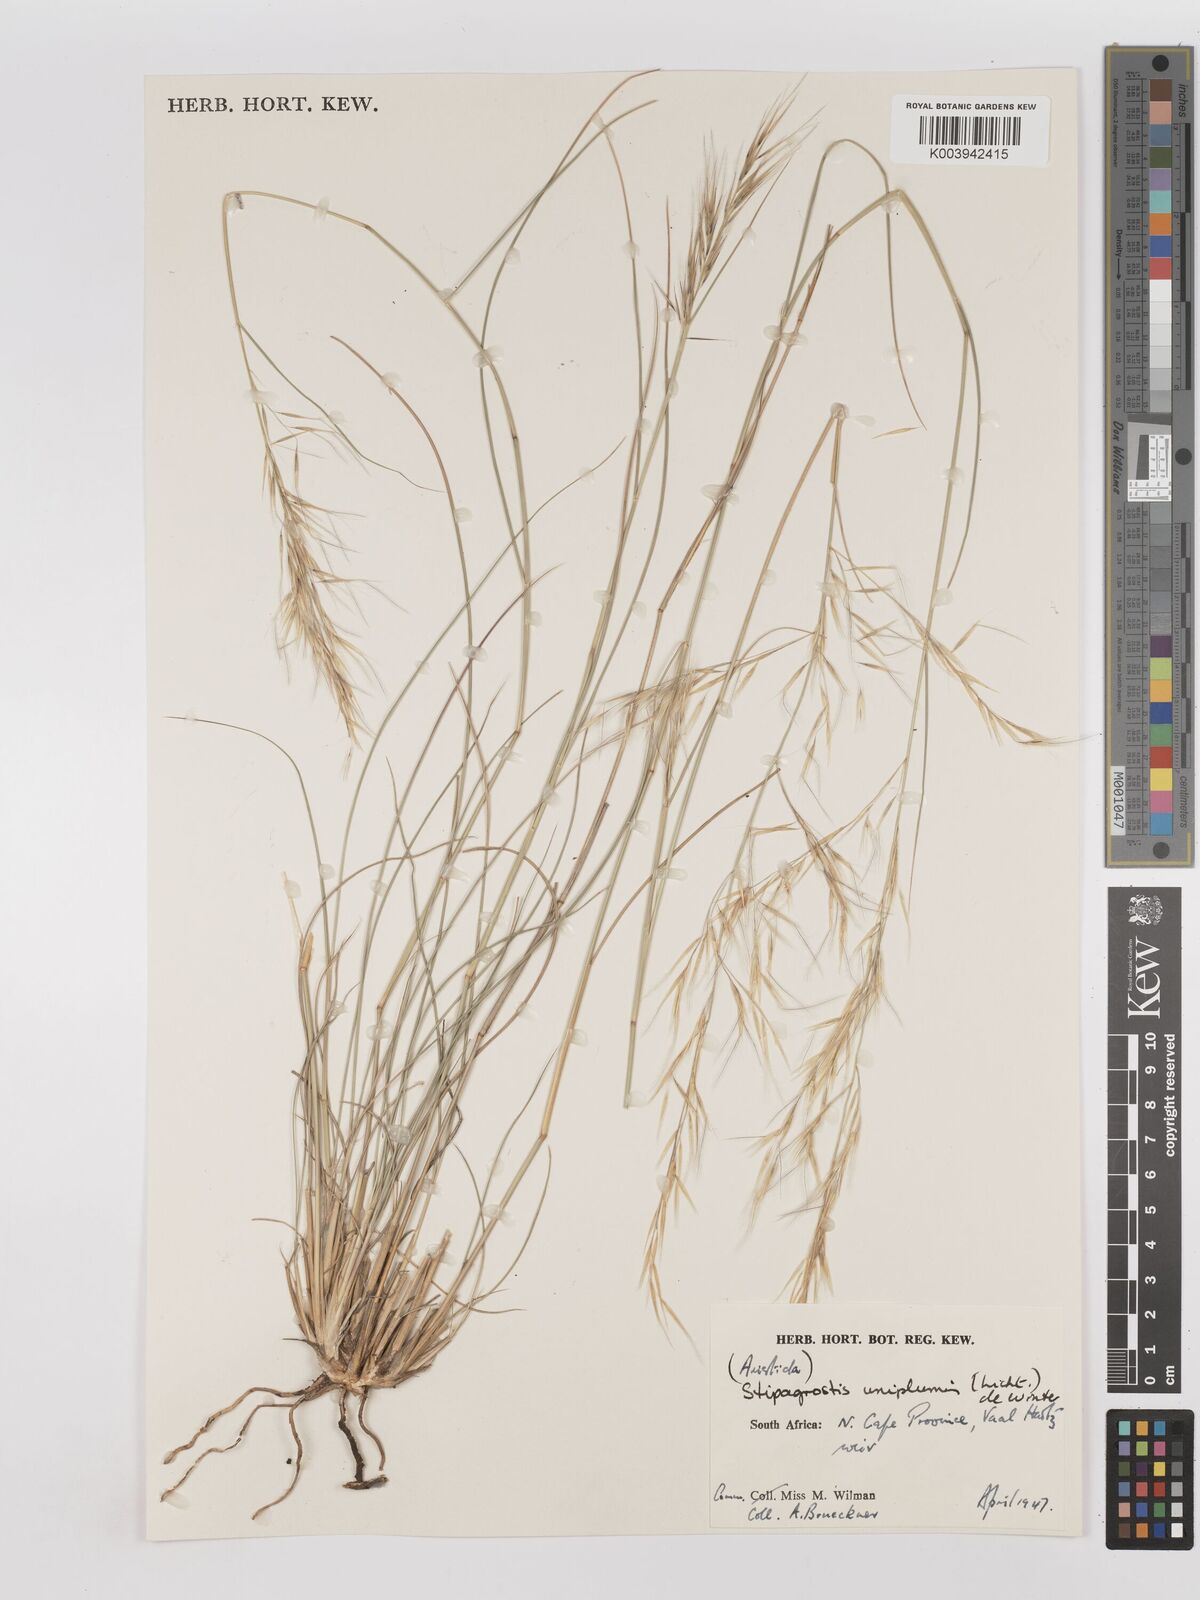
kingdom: Plantae
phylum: Tracheophyta
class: Liliopsida
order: Poales
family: Poaceae
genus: Stipagrostis
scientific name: Stipagrostis uniplumis
